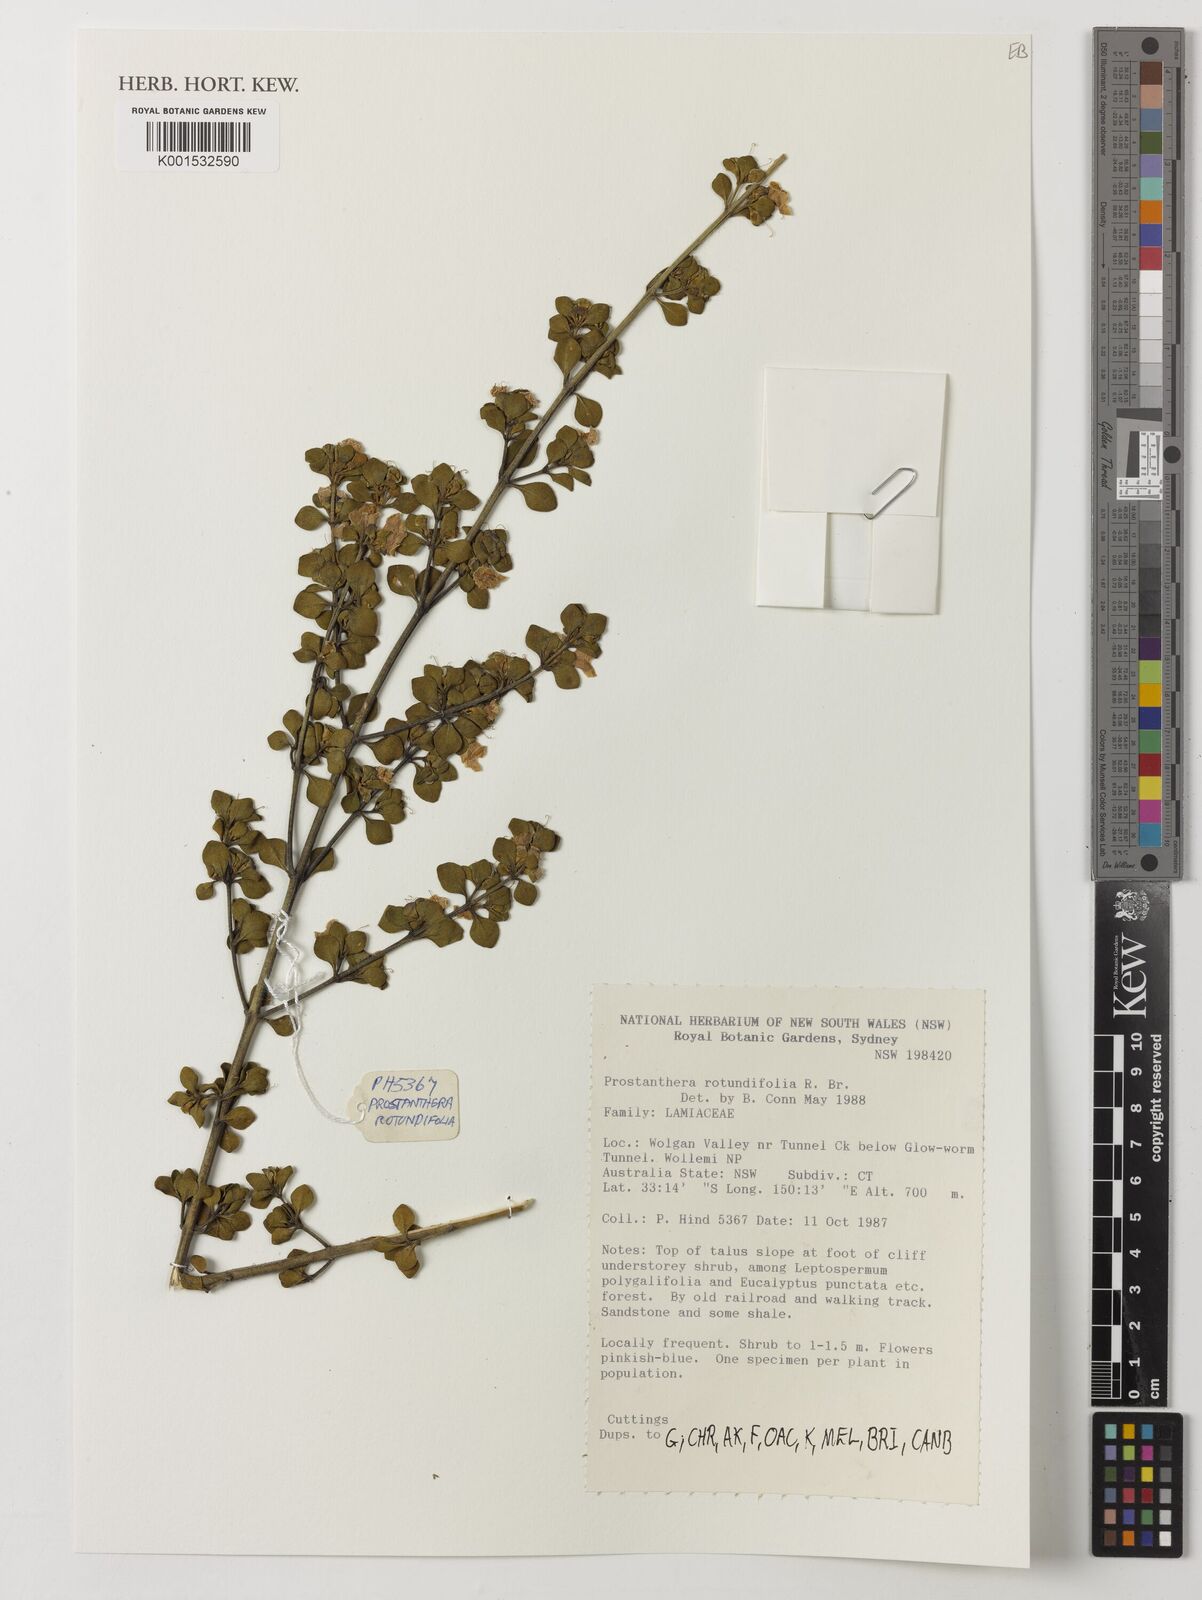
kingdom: Plantae
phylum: Tracheophyta
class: Magnoliopsida
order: Lamiales
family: Lamiaceae
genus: Prostanthera
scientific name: Prostanthera rotundifolia
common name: Round-leaf mintbush
